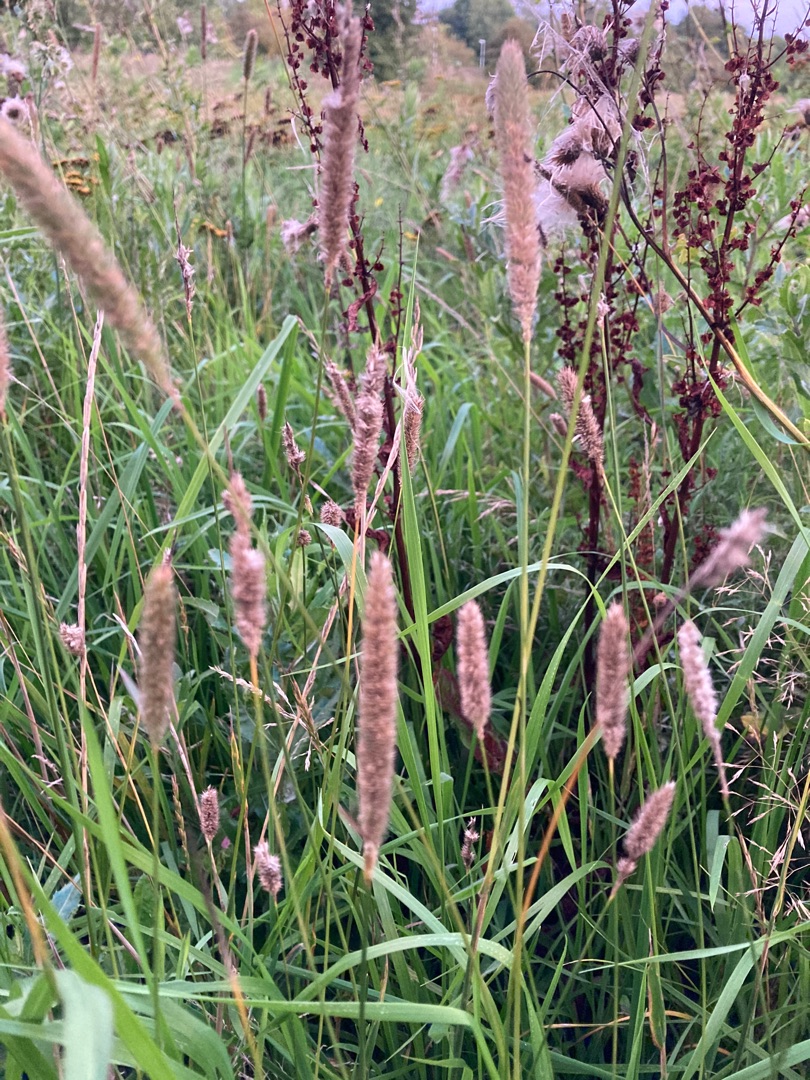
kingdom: Plantae
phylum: Tracheophyta
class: Liliopsida
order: Poales
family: Poaceae
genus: Phleum
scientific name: Phleum pratense
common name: Eng-rottehale
